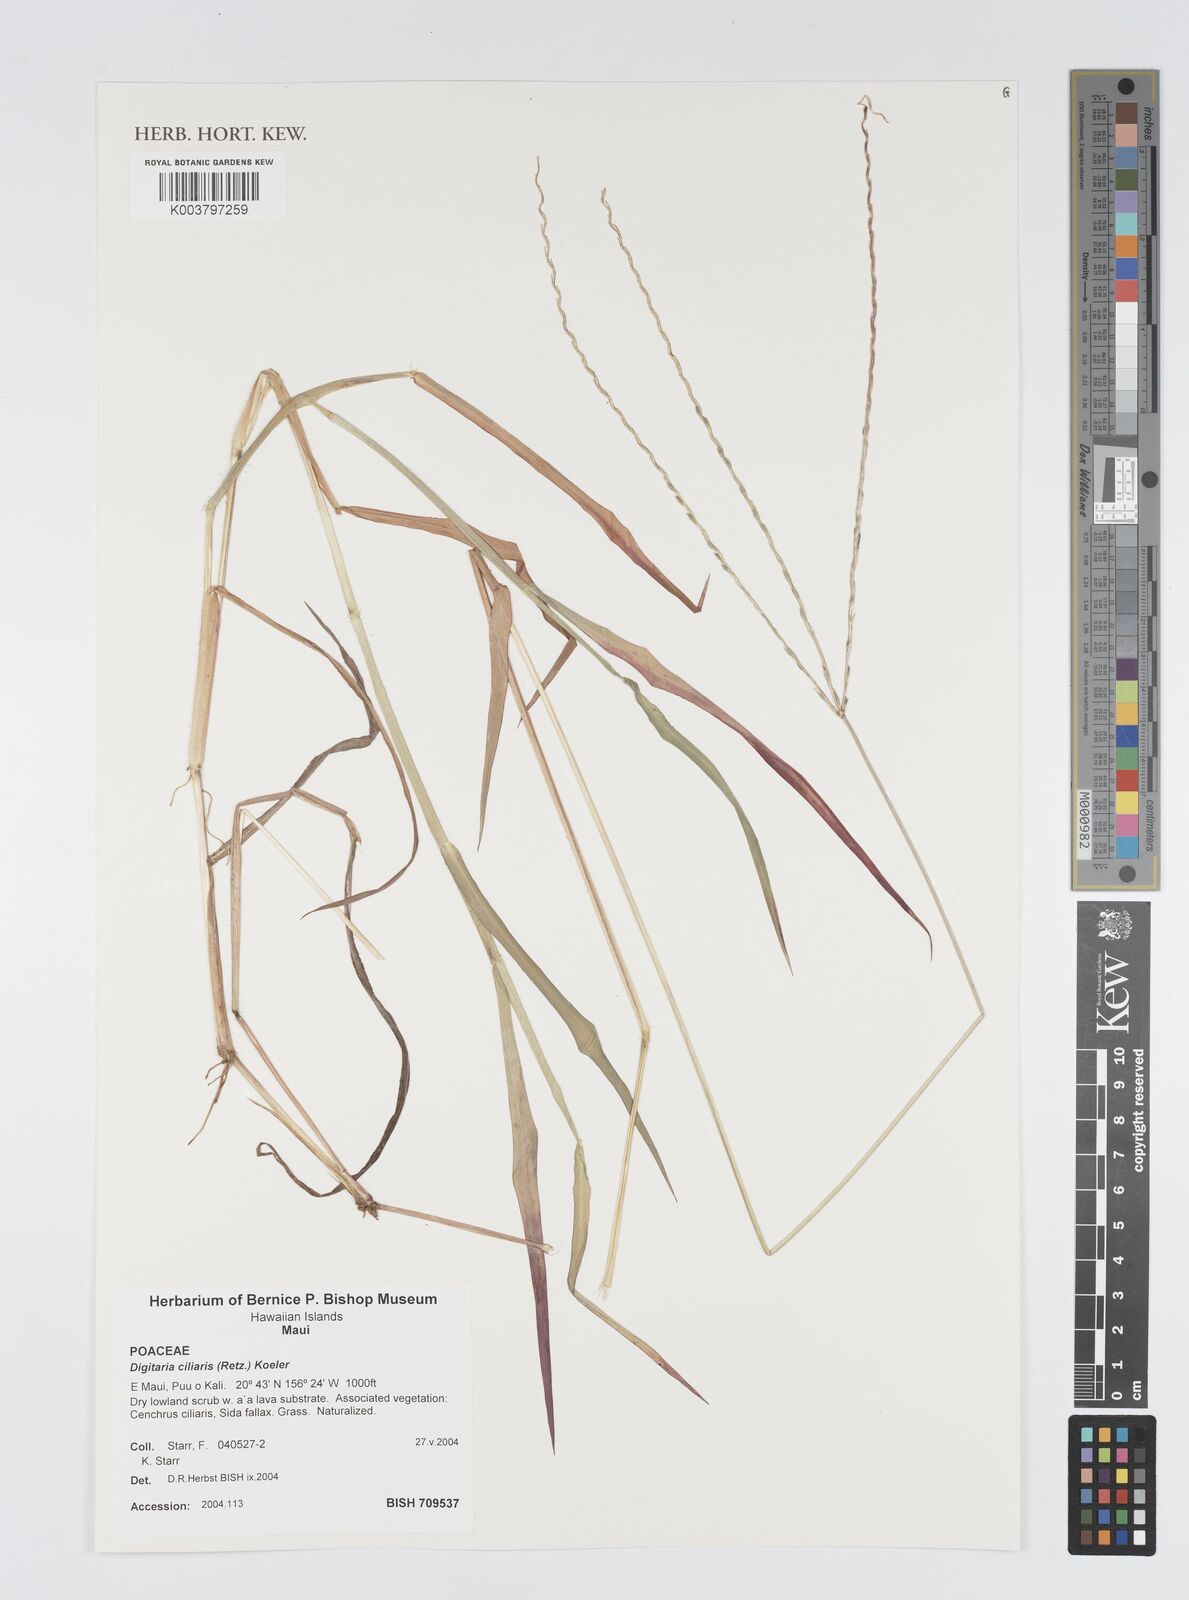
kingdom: Plantae
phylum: Tracheophyta
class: Liliopsida
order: Poales
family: Poaceae
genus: Digitaria
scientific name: Digitaria ciliaris
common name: Tropical finger-grass
